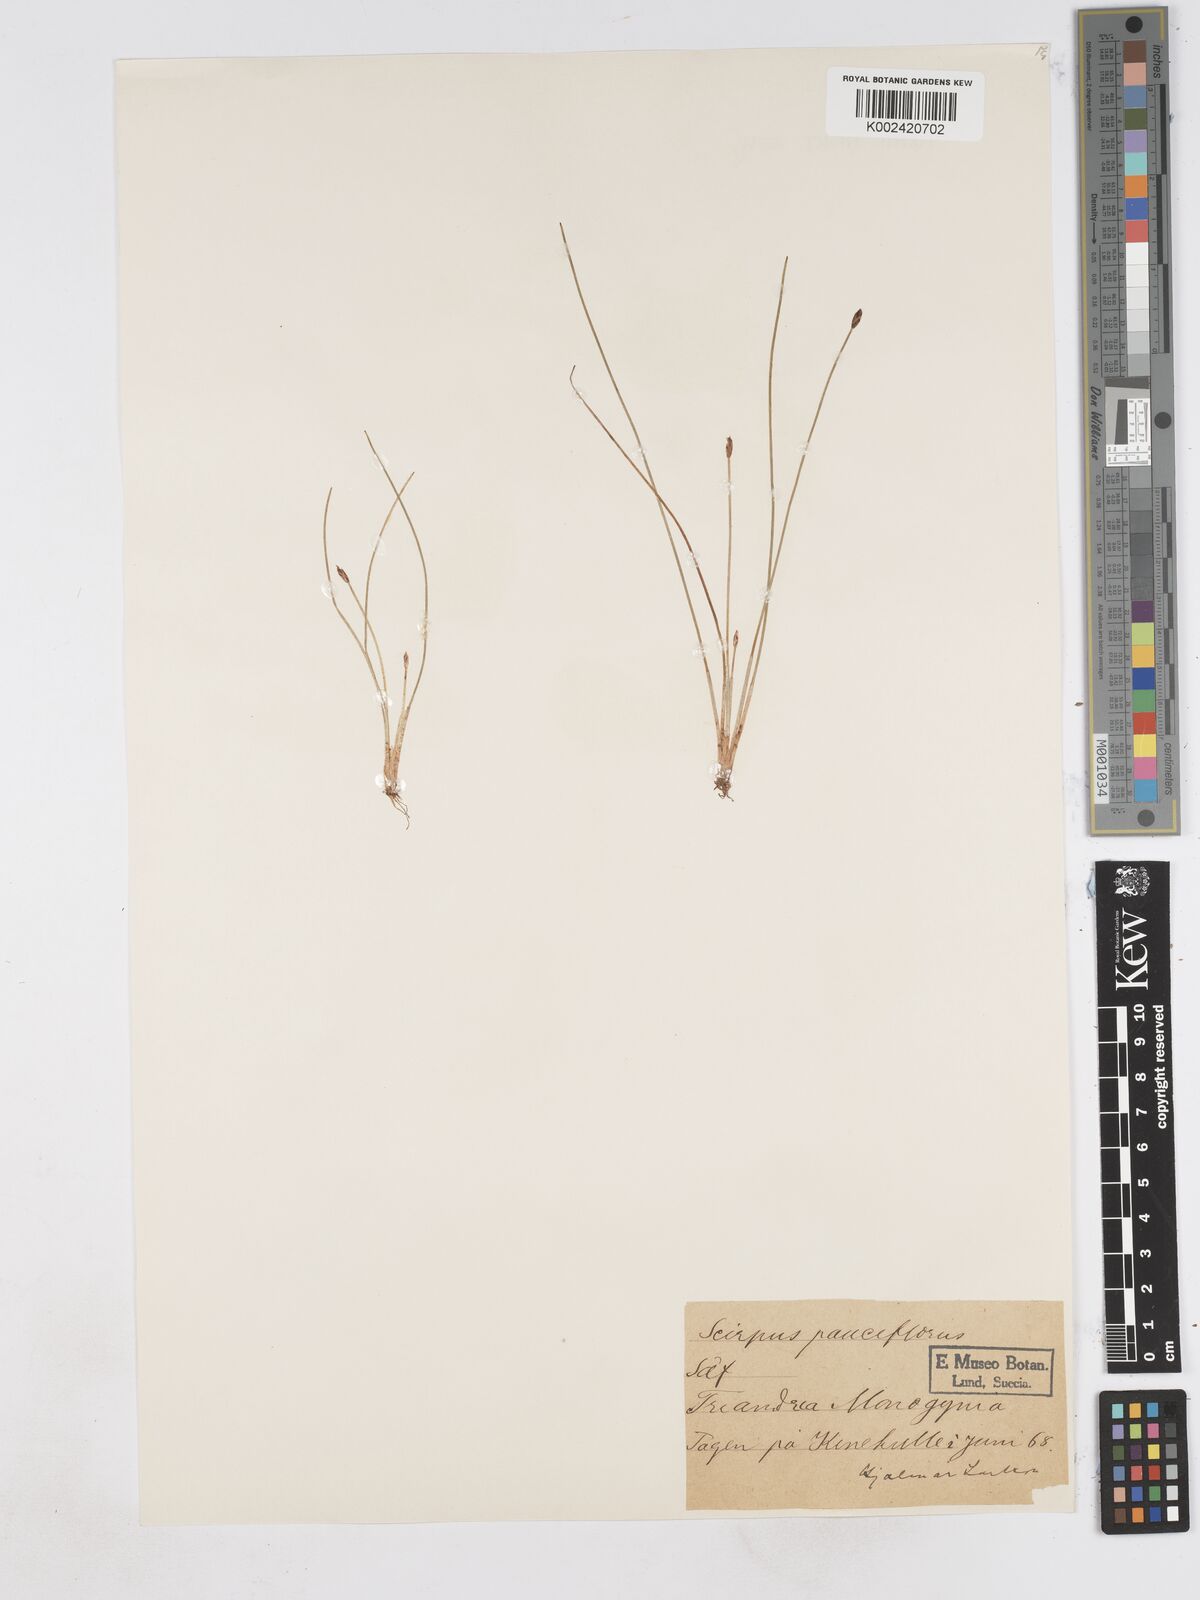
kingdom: Plantae
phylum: Tracheophyta
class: Liliopsida
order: Poales
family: Cyperaceae
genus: Eleocharis
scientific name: Eleocharis quinqueflora
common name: Few-flowered spike-rush
